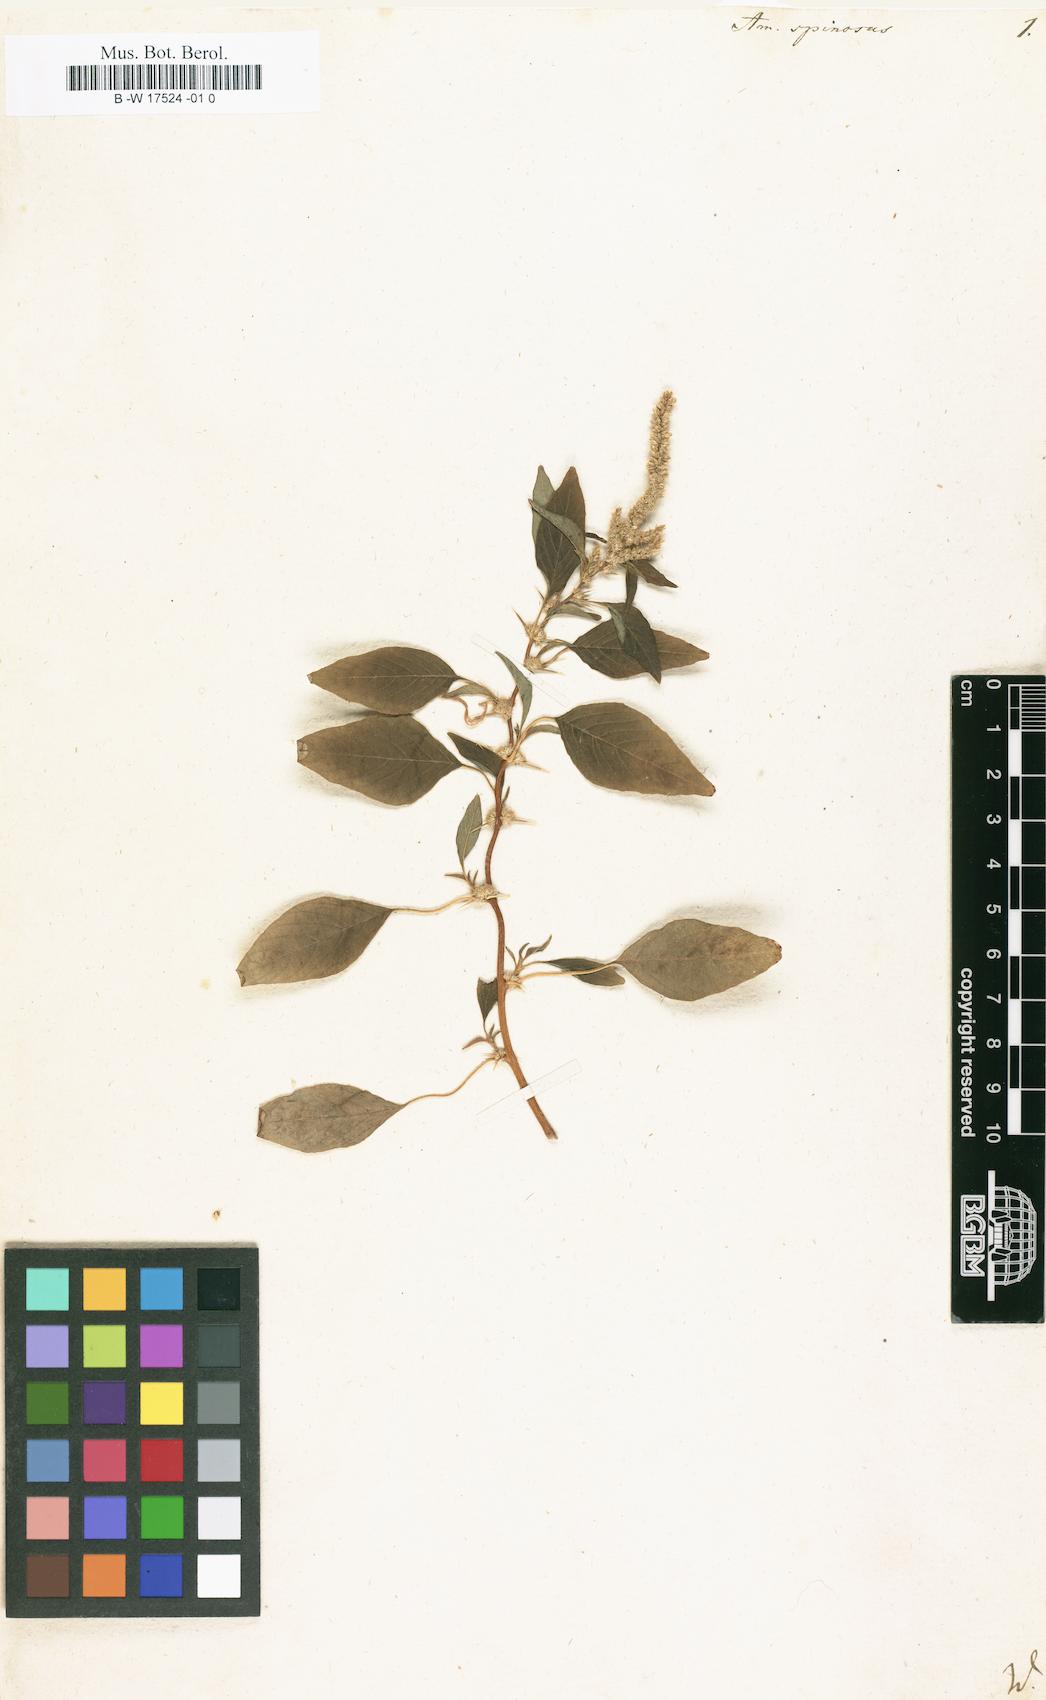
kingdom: Plantae
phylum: Tracheophyta
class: Magnoliopsida
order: Caryophyllales
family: Amaranthaceae
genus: Amaranthus
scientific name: Amaranthus spinosus
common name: Spiny amaranth
